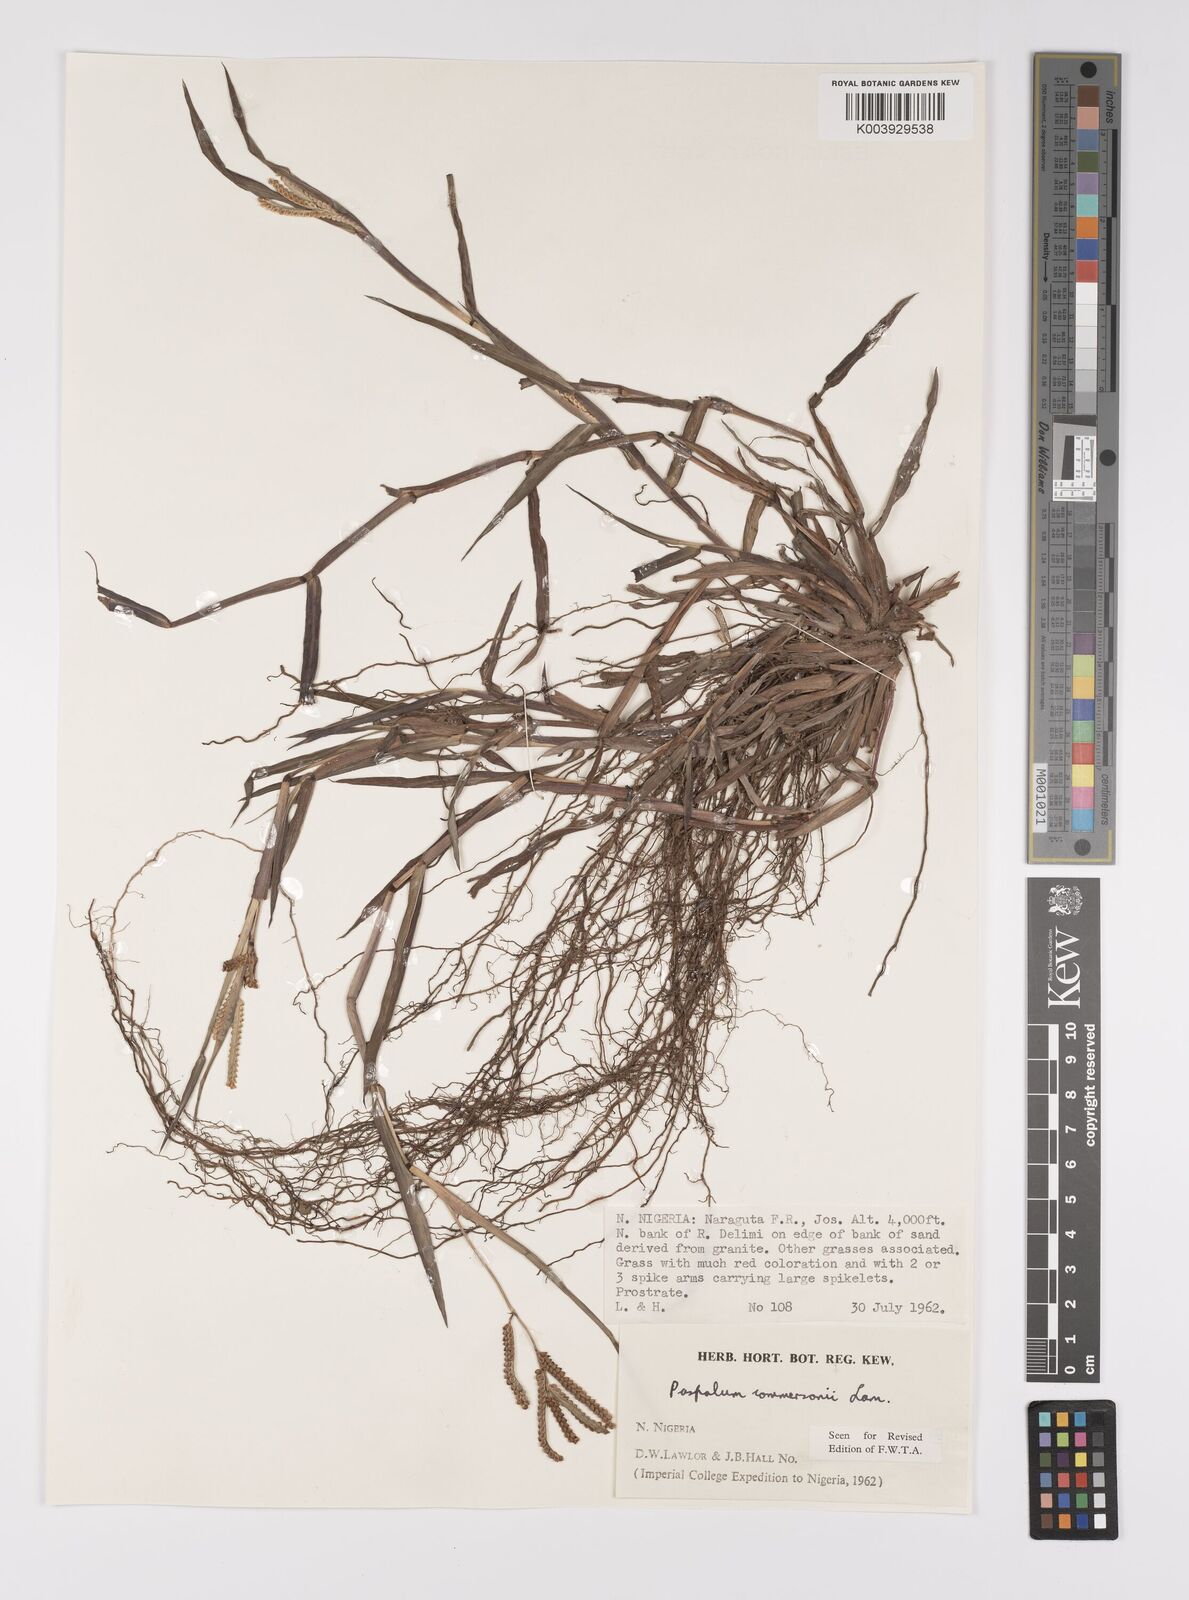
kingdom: Plantae
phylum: Tracheophyta
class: Liliopsida
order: Poales
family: Poaceae
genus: Paspalum
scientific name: Paspalum scrobiculatum
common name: Kodo millet
